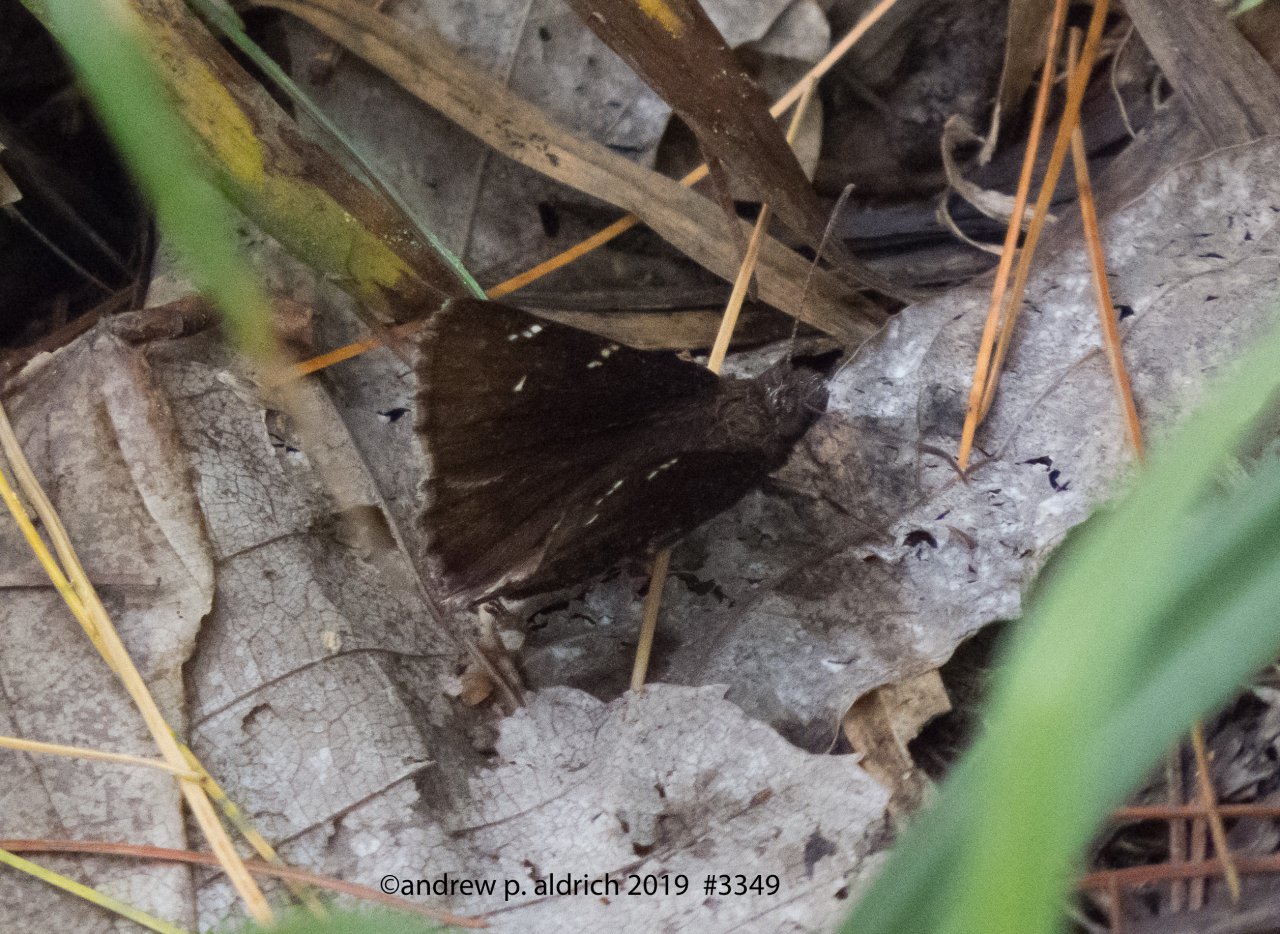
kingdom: Animalia
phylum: Arthropoda
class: Insecta
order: Lepidoptera
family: Hesperiidae
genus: Autochton
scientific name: Autochton
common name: Northern Cloudywing
